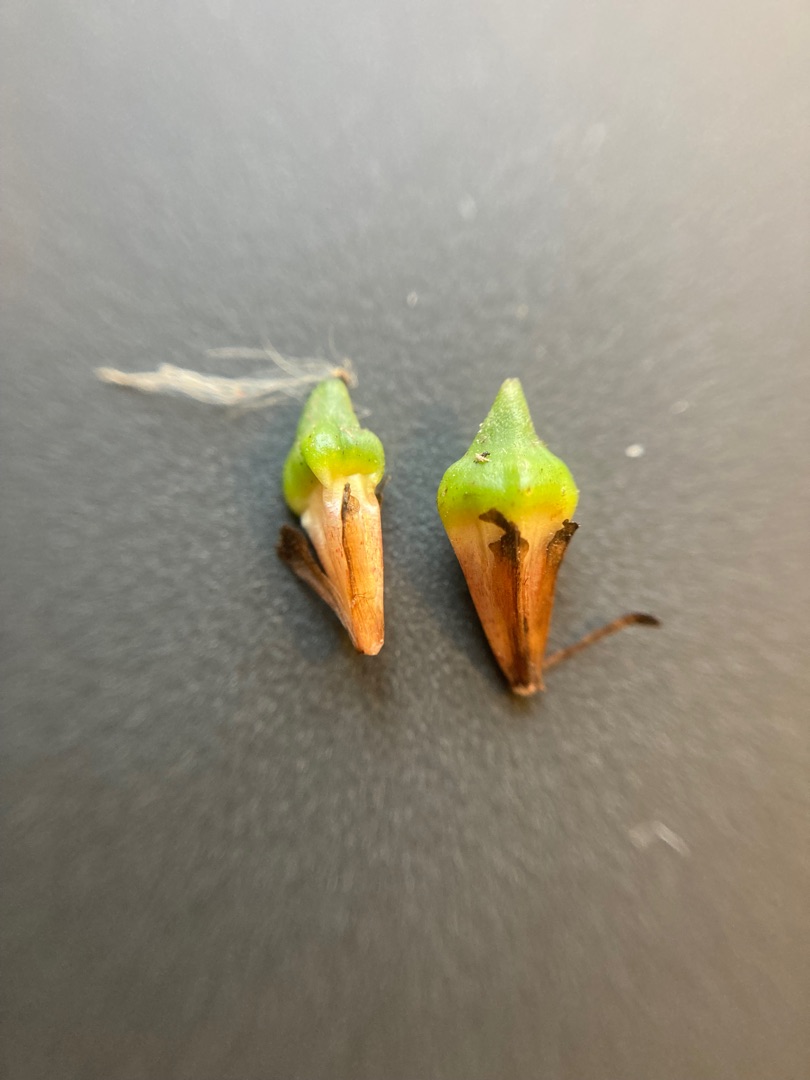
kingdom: Plantae
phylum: Tracheophyta
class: Liliopsida
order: Poales
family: Typhaceae
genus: Sparganium
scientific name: Sparganium erectum
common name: Småfrugtet pindsvineknop
